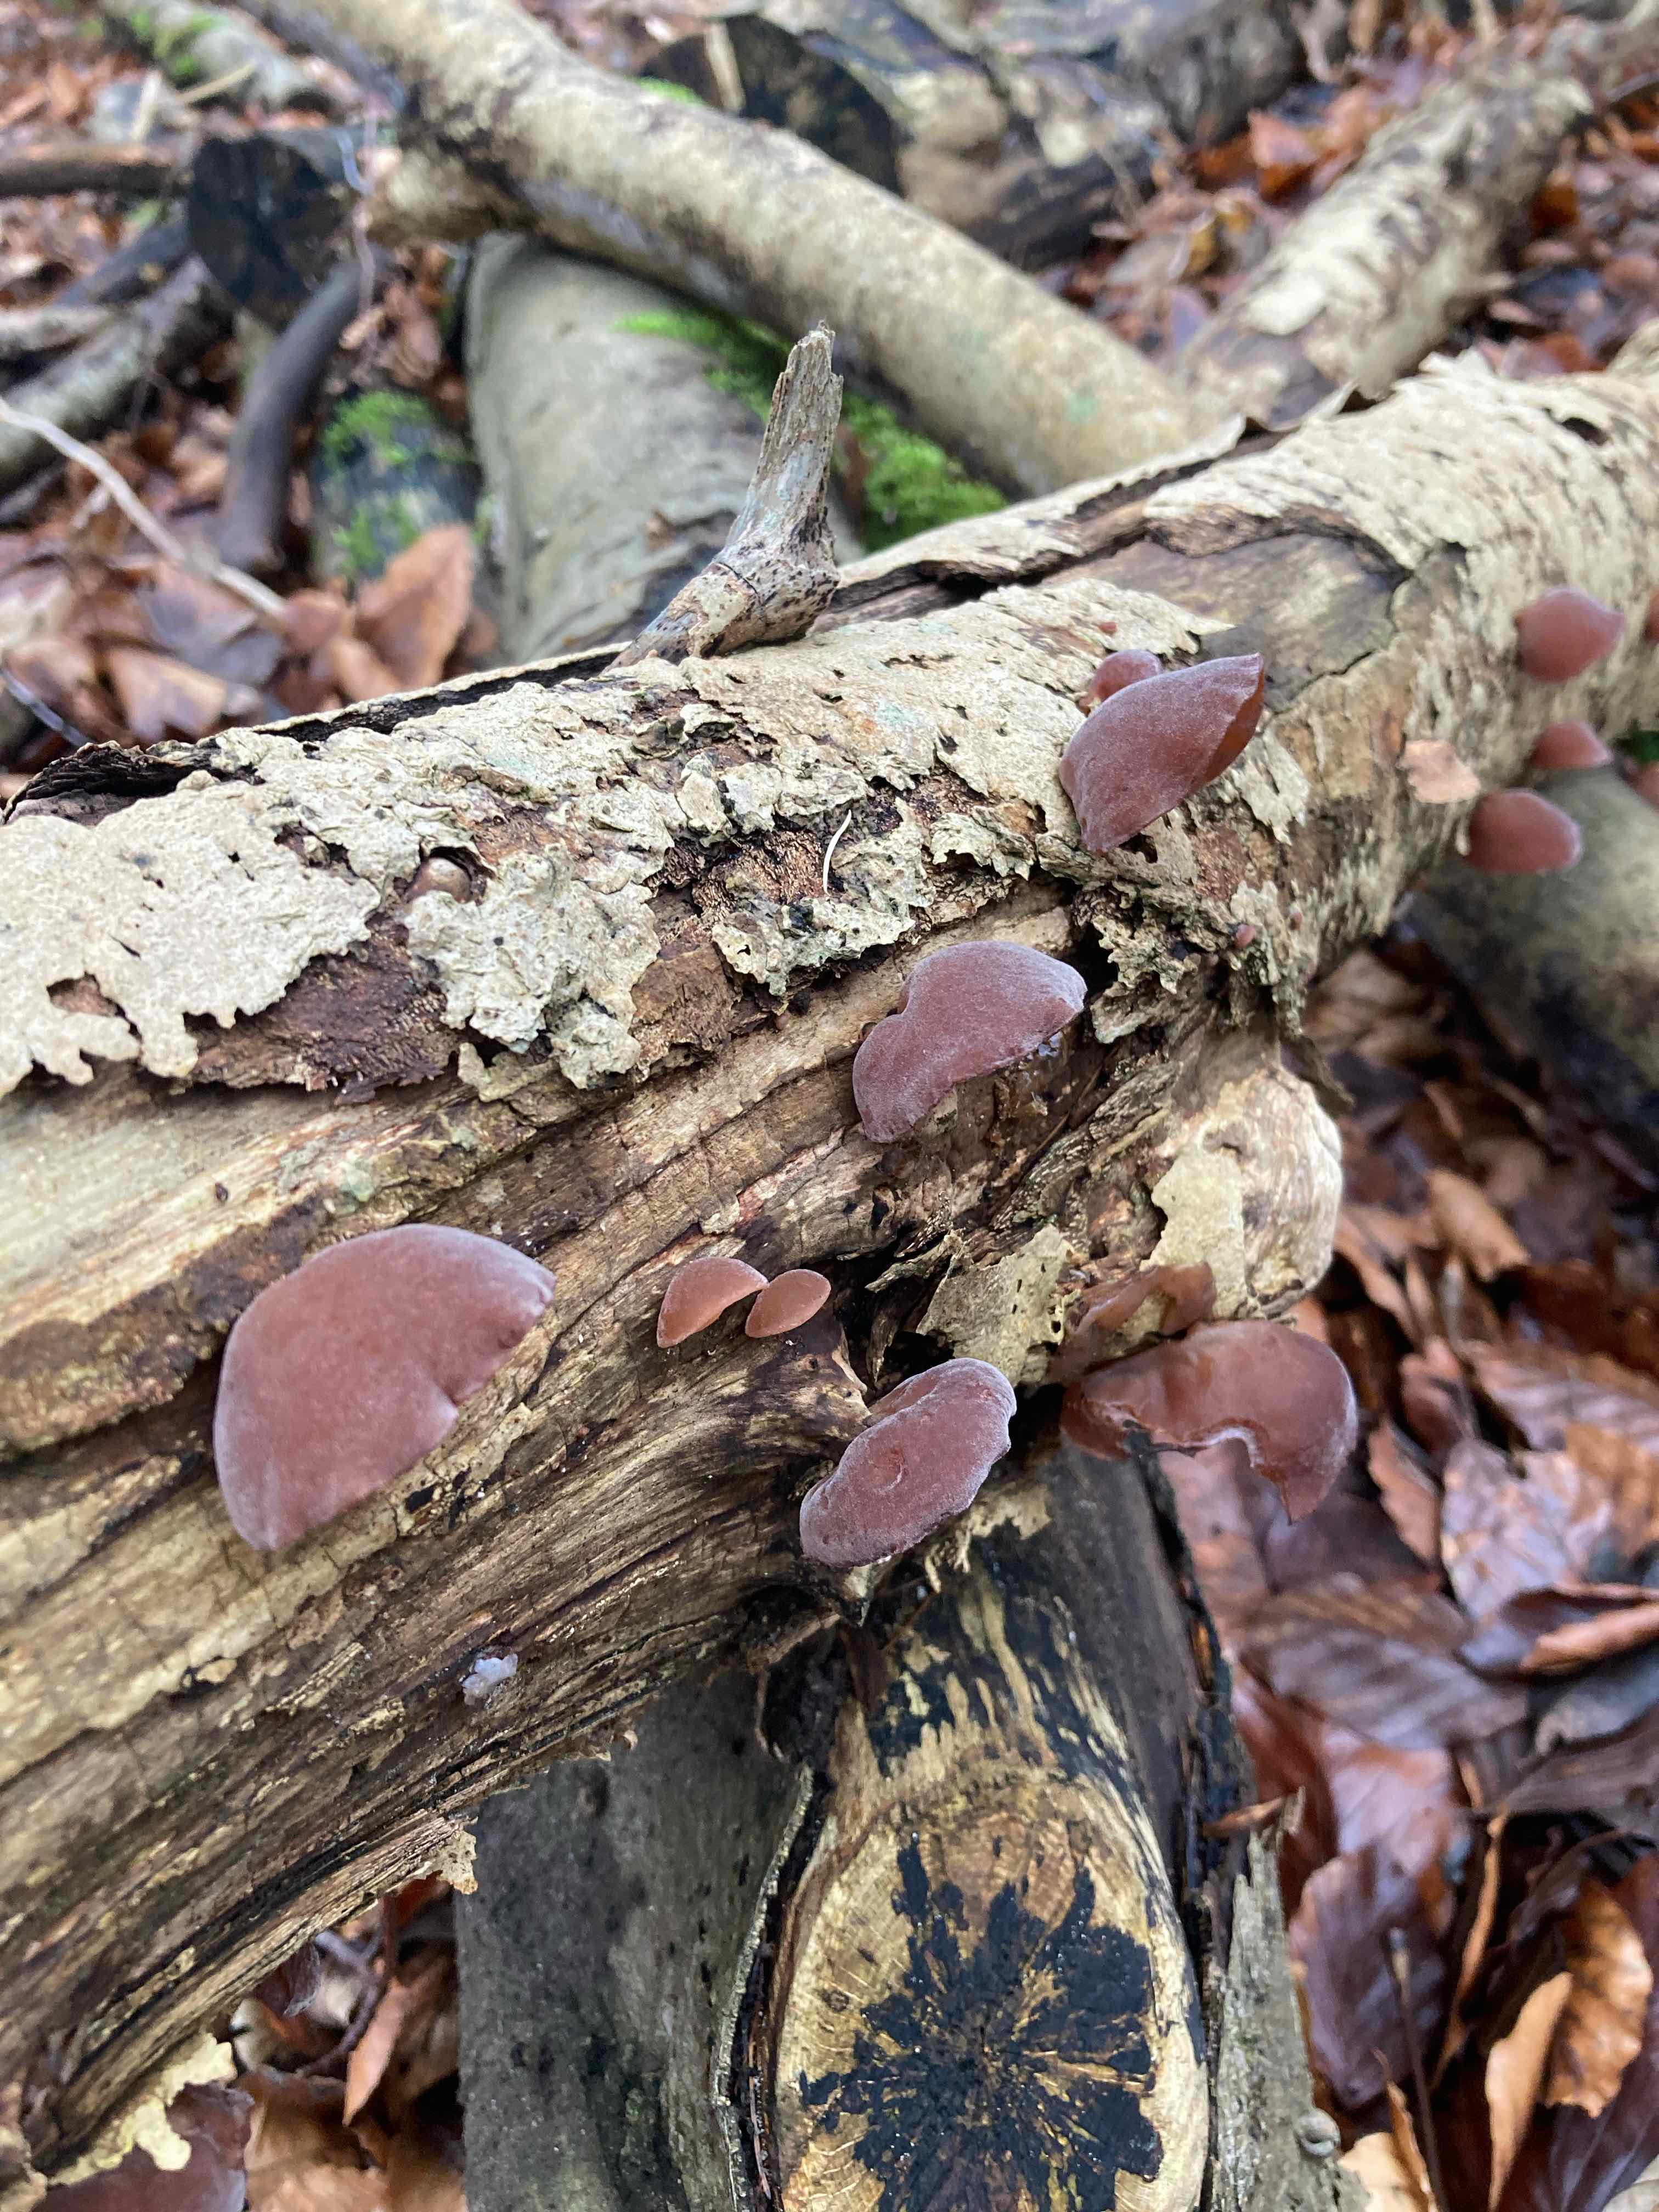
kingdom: Fungi
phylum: Basidiomycota
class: Agaricomycetes
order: Auriculariales
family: Auriculariaceae
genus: Auricularia
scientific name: Auricularia auricula-judae
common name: almindelig judasøre
